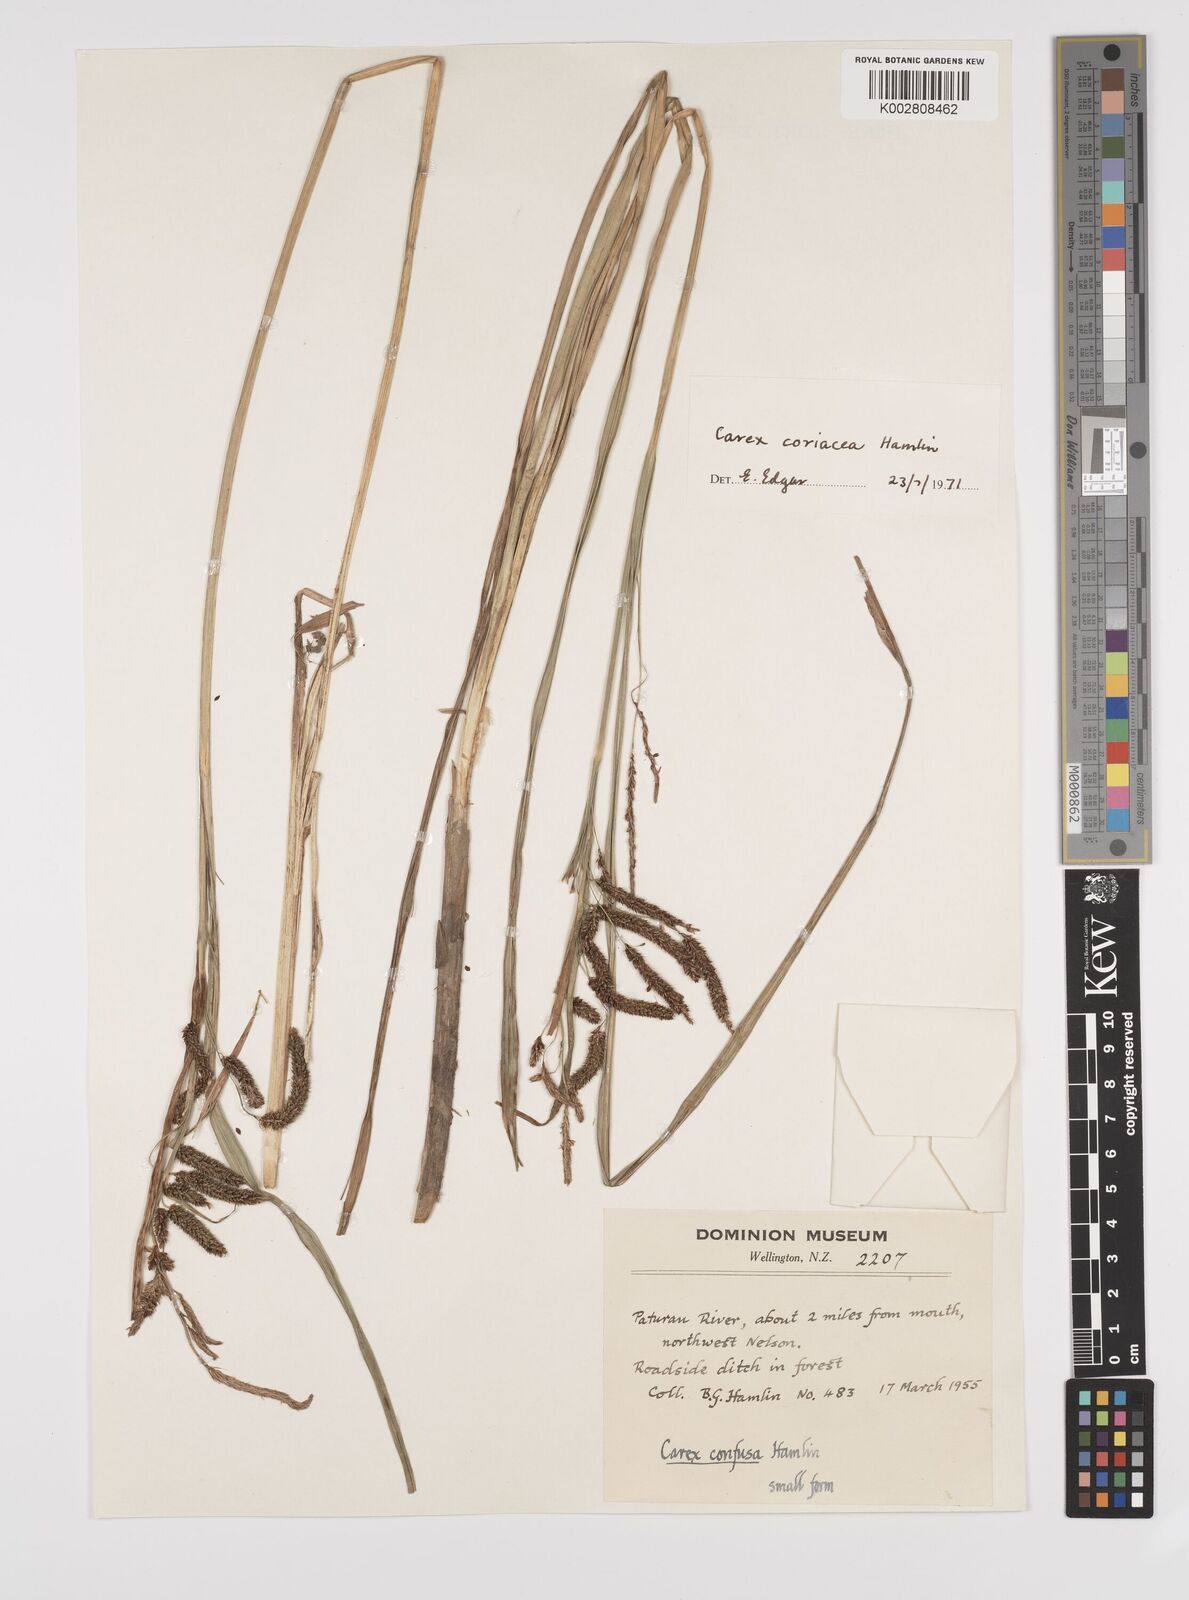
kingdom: Plantae
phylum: Tracheophyta
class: Liliopsida
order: Poales
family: Cyperaceae
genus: Carex
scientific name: Carex coriacea
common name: Rautahi
